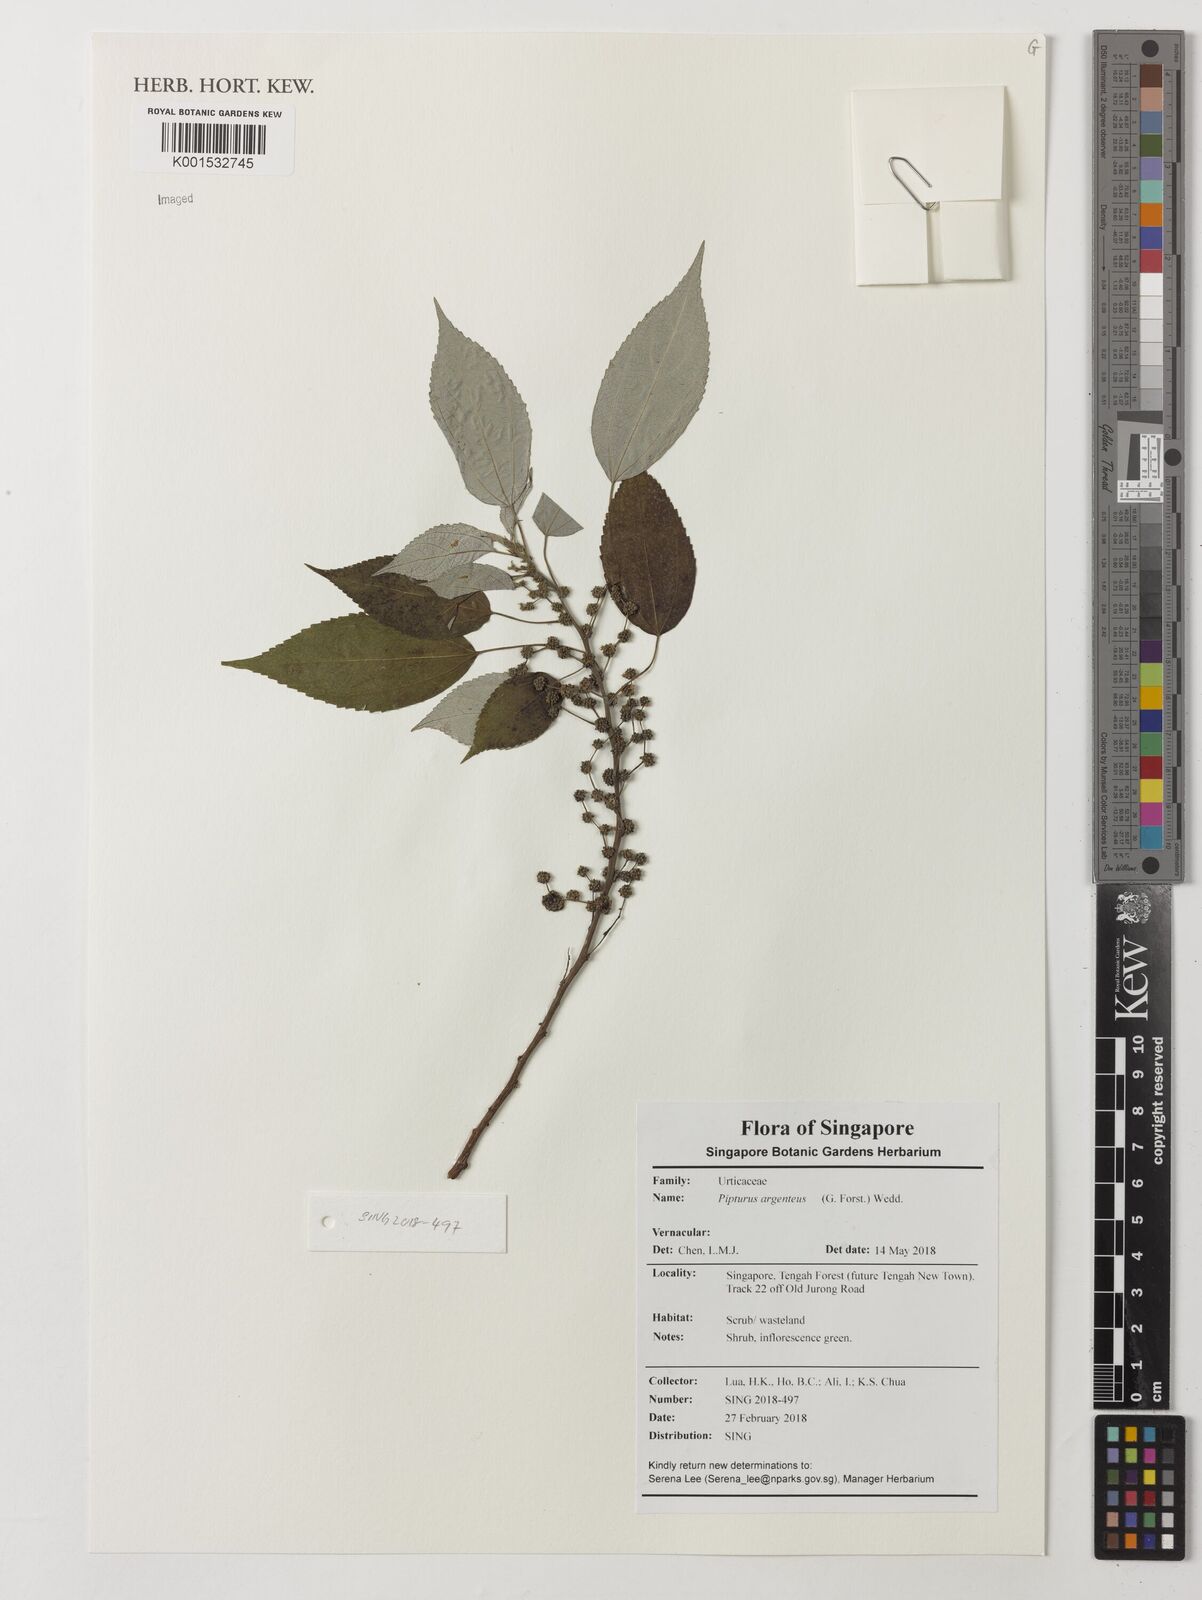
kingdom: Plantae
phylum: Tracheophyta
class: Magnoliopsida
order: Rosales
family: Urticaceae
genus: Pipturus
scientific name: Pipturus argenteus
